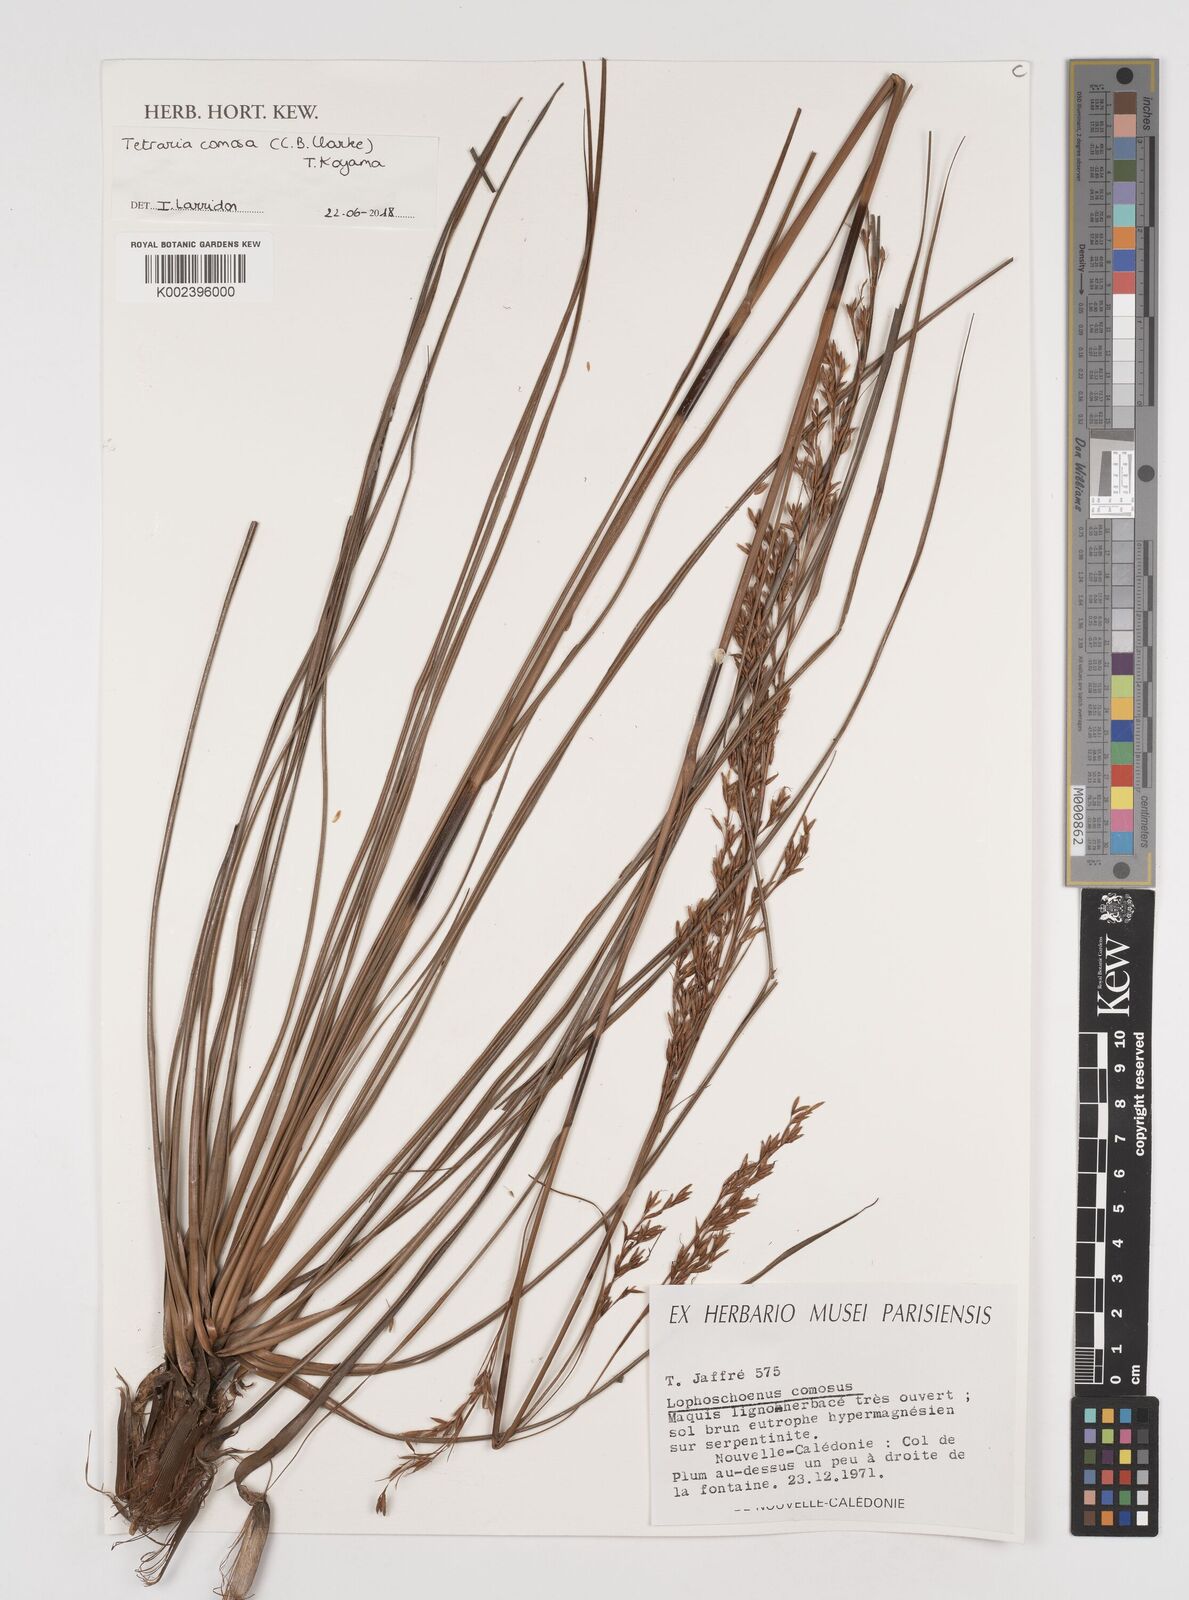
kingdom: Plantae
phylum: Tracheophyta
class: Liliopsida
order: Poales
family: Cyperaceae
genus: Tetraria
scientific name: Tetraria comosa
